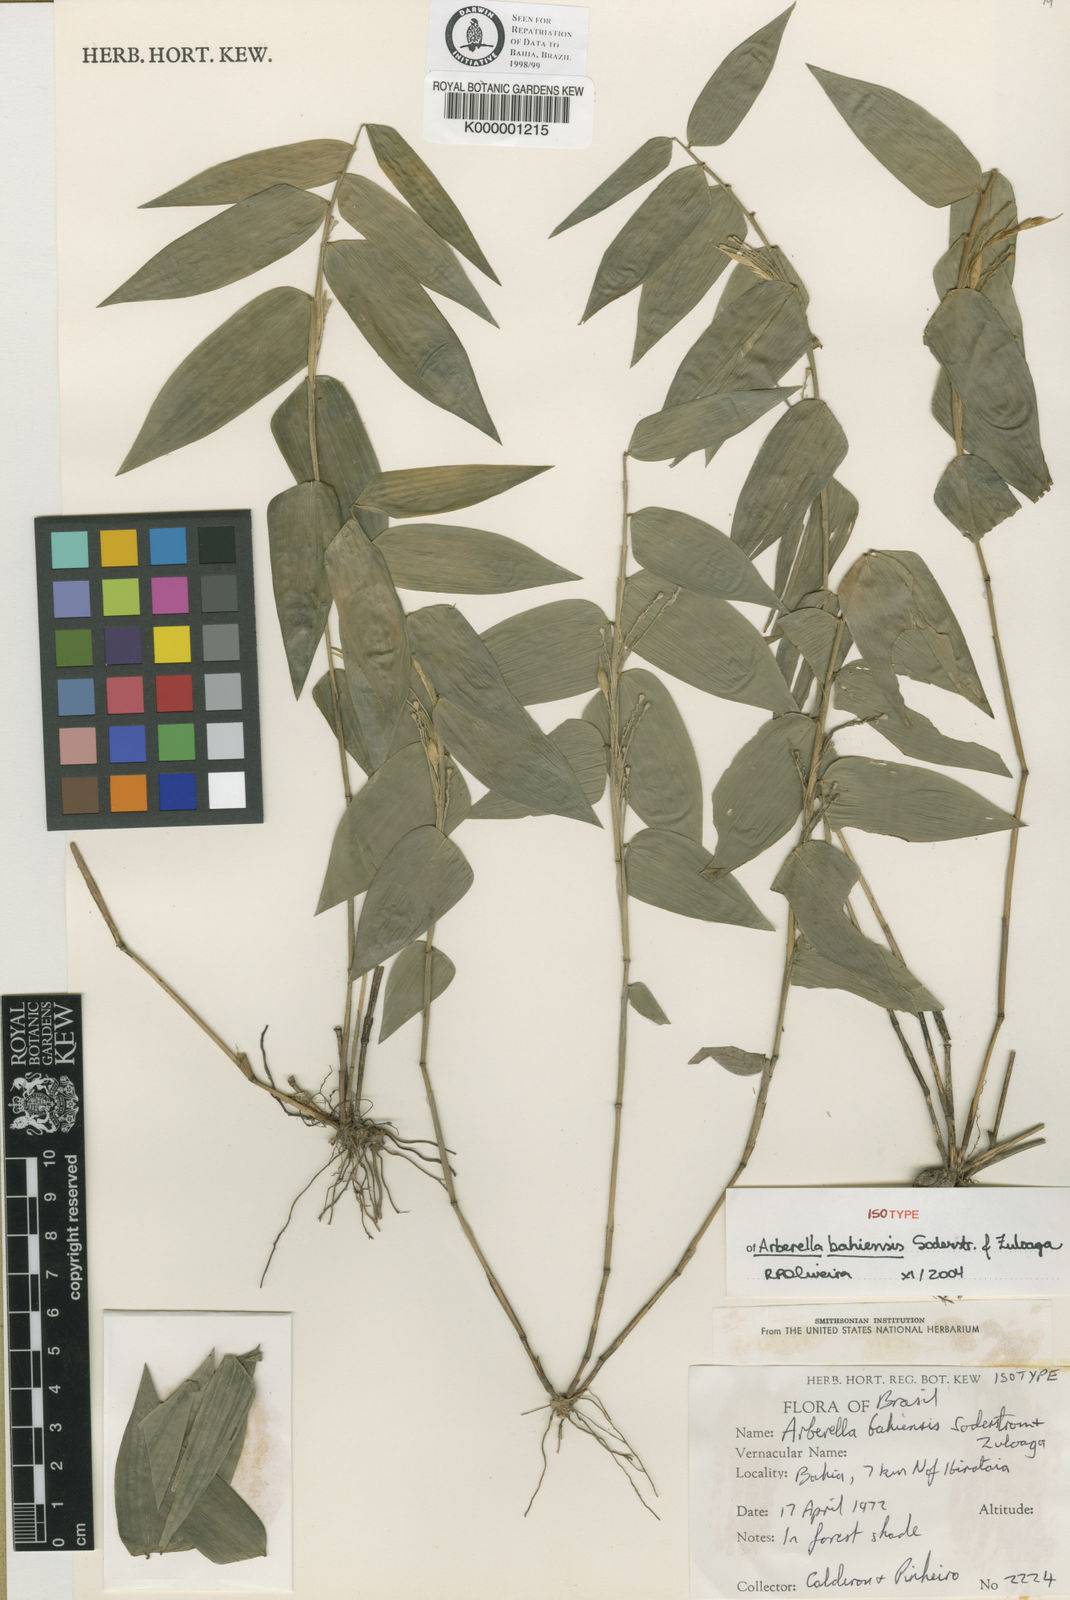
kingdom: Plantae
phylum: Tracheophyta
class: Liliopsida
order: Poales
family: Poaceae
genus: Arberella
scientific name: Arberella bahiensis
